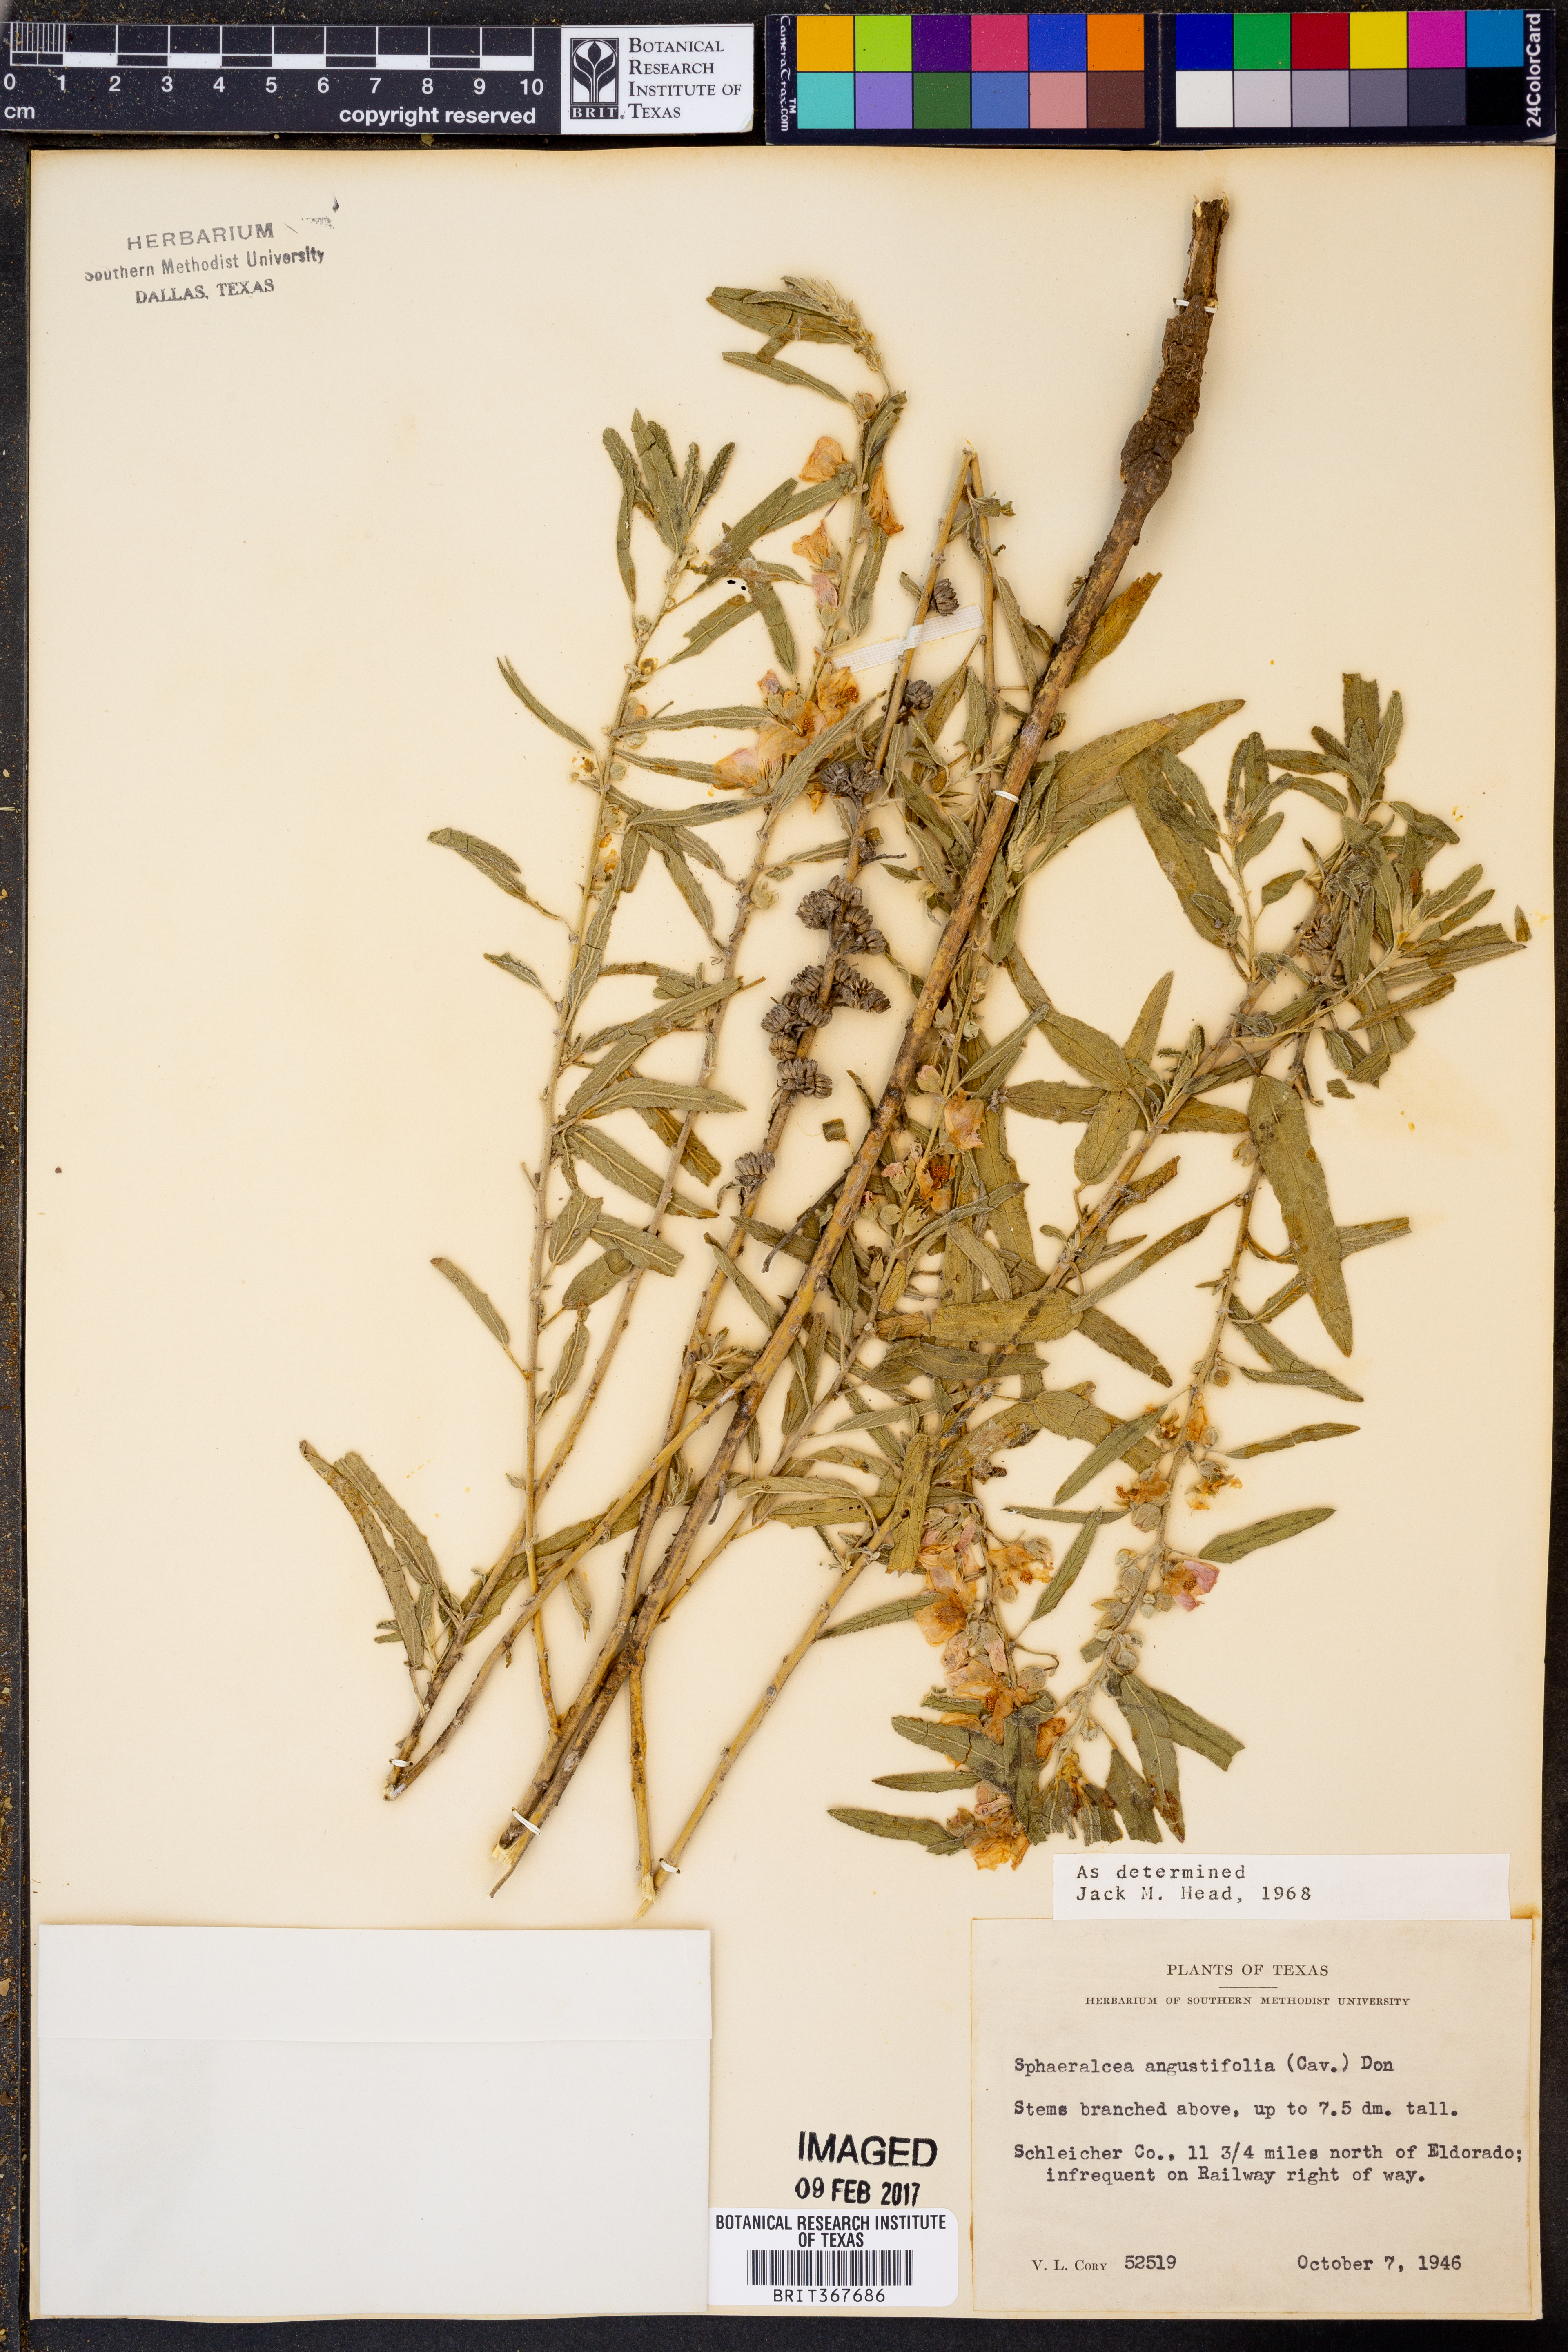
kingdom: Plantae
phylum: Tracheophyta
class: Magnoliopsida
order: Malvales
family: Malvaceae
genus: Sphaeralcea
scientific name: Sphaeralcea angustifolia
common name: Copper globe-mallow
